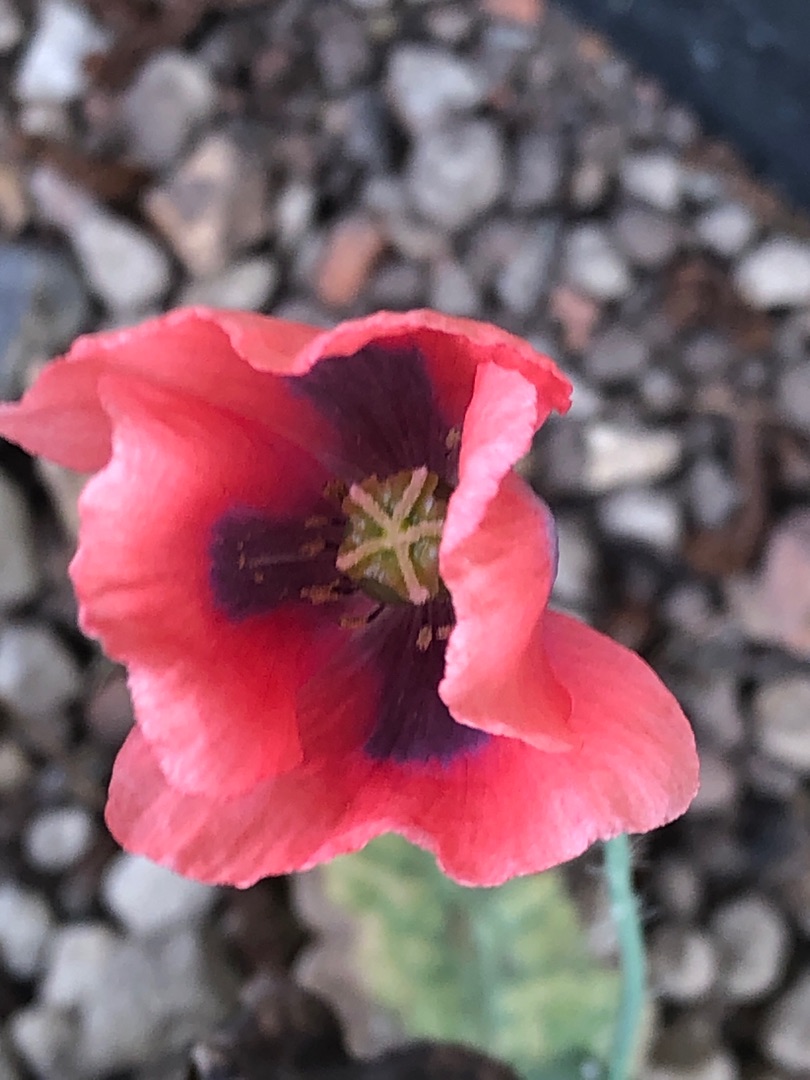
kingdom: Plantae
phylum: Tracheophyta
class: Magnoliopsida
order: Ranunculales
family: Papaveraceae
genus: Papaver
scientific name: Papaver
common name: Valmueslægten
